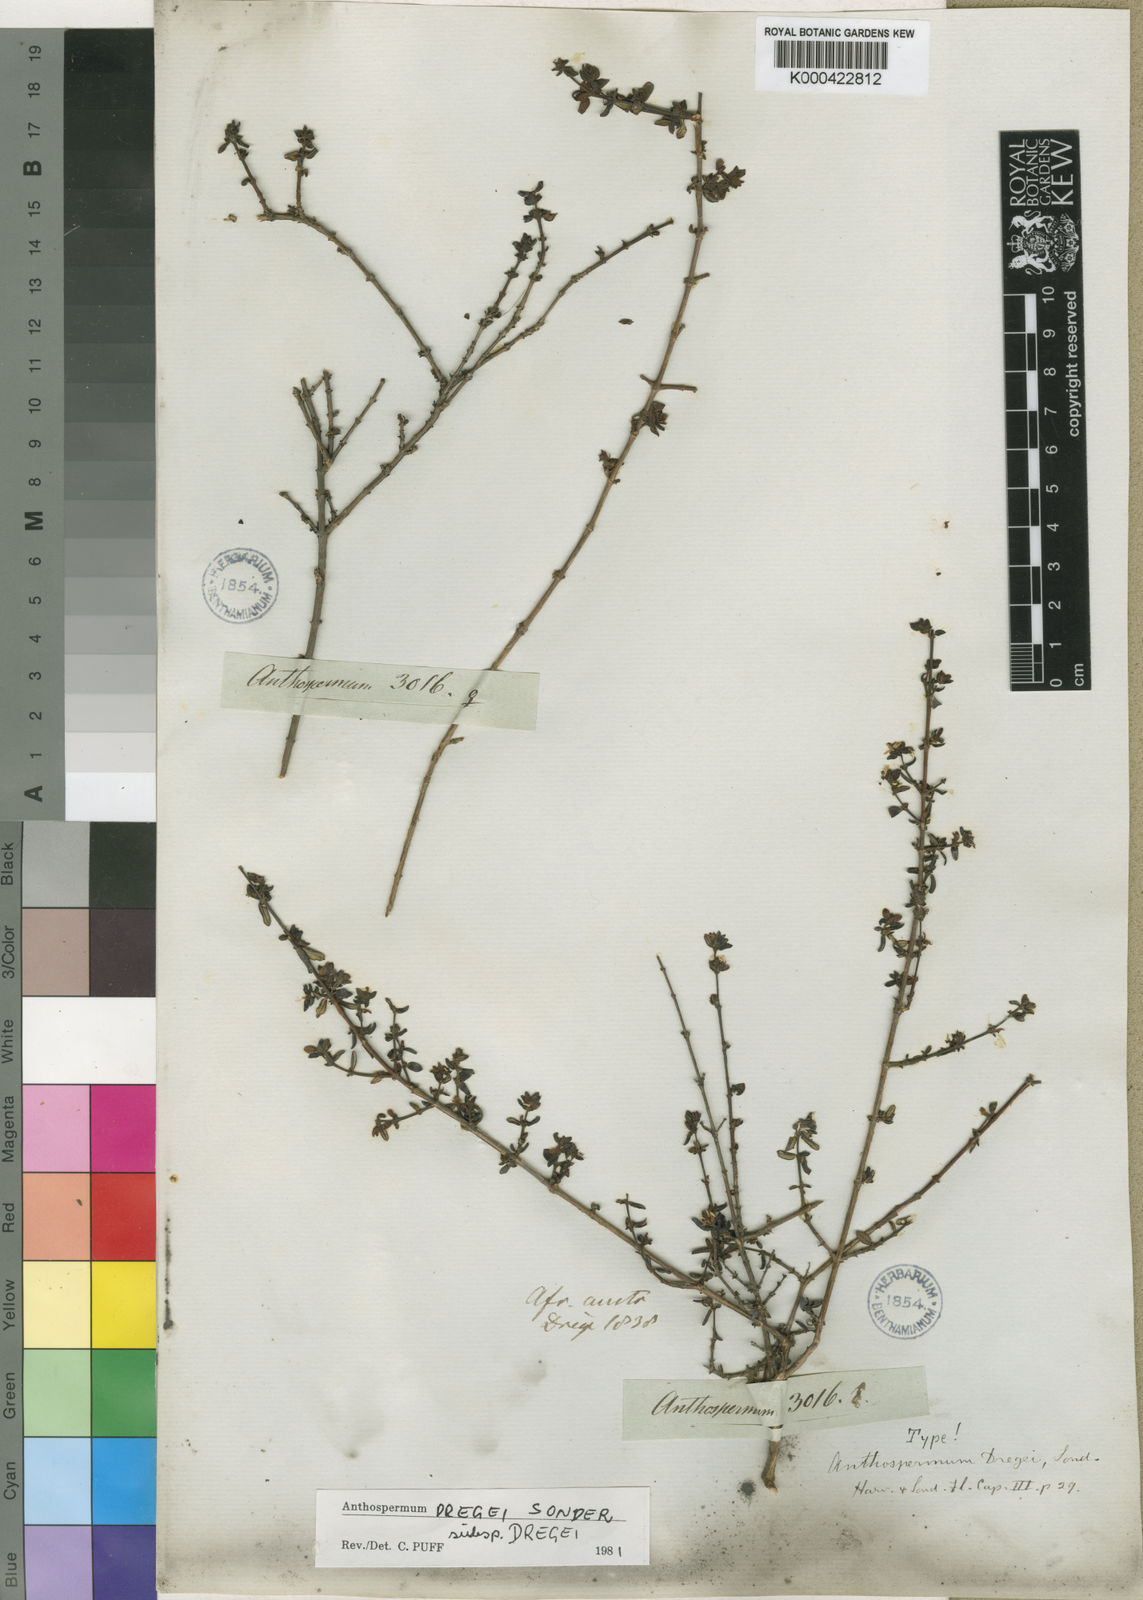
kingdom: Plantae
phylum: Tracheophyta
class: Magnoliopsida
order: Gentianales
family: Rubiaceae
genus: Anthospermum
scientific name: Anthospermum dregei
